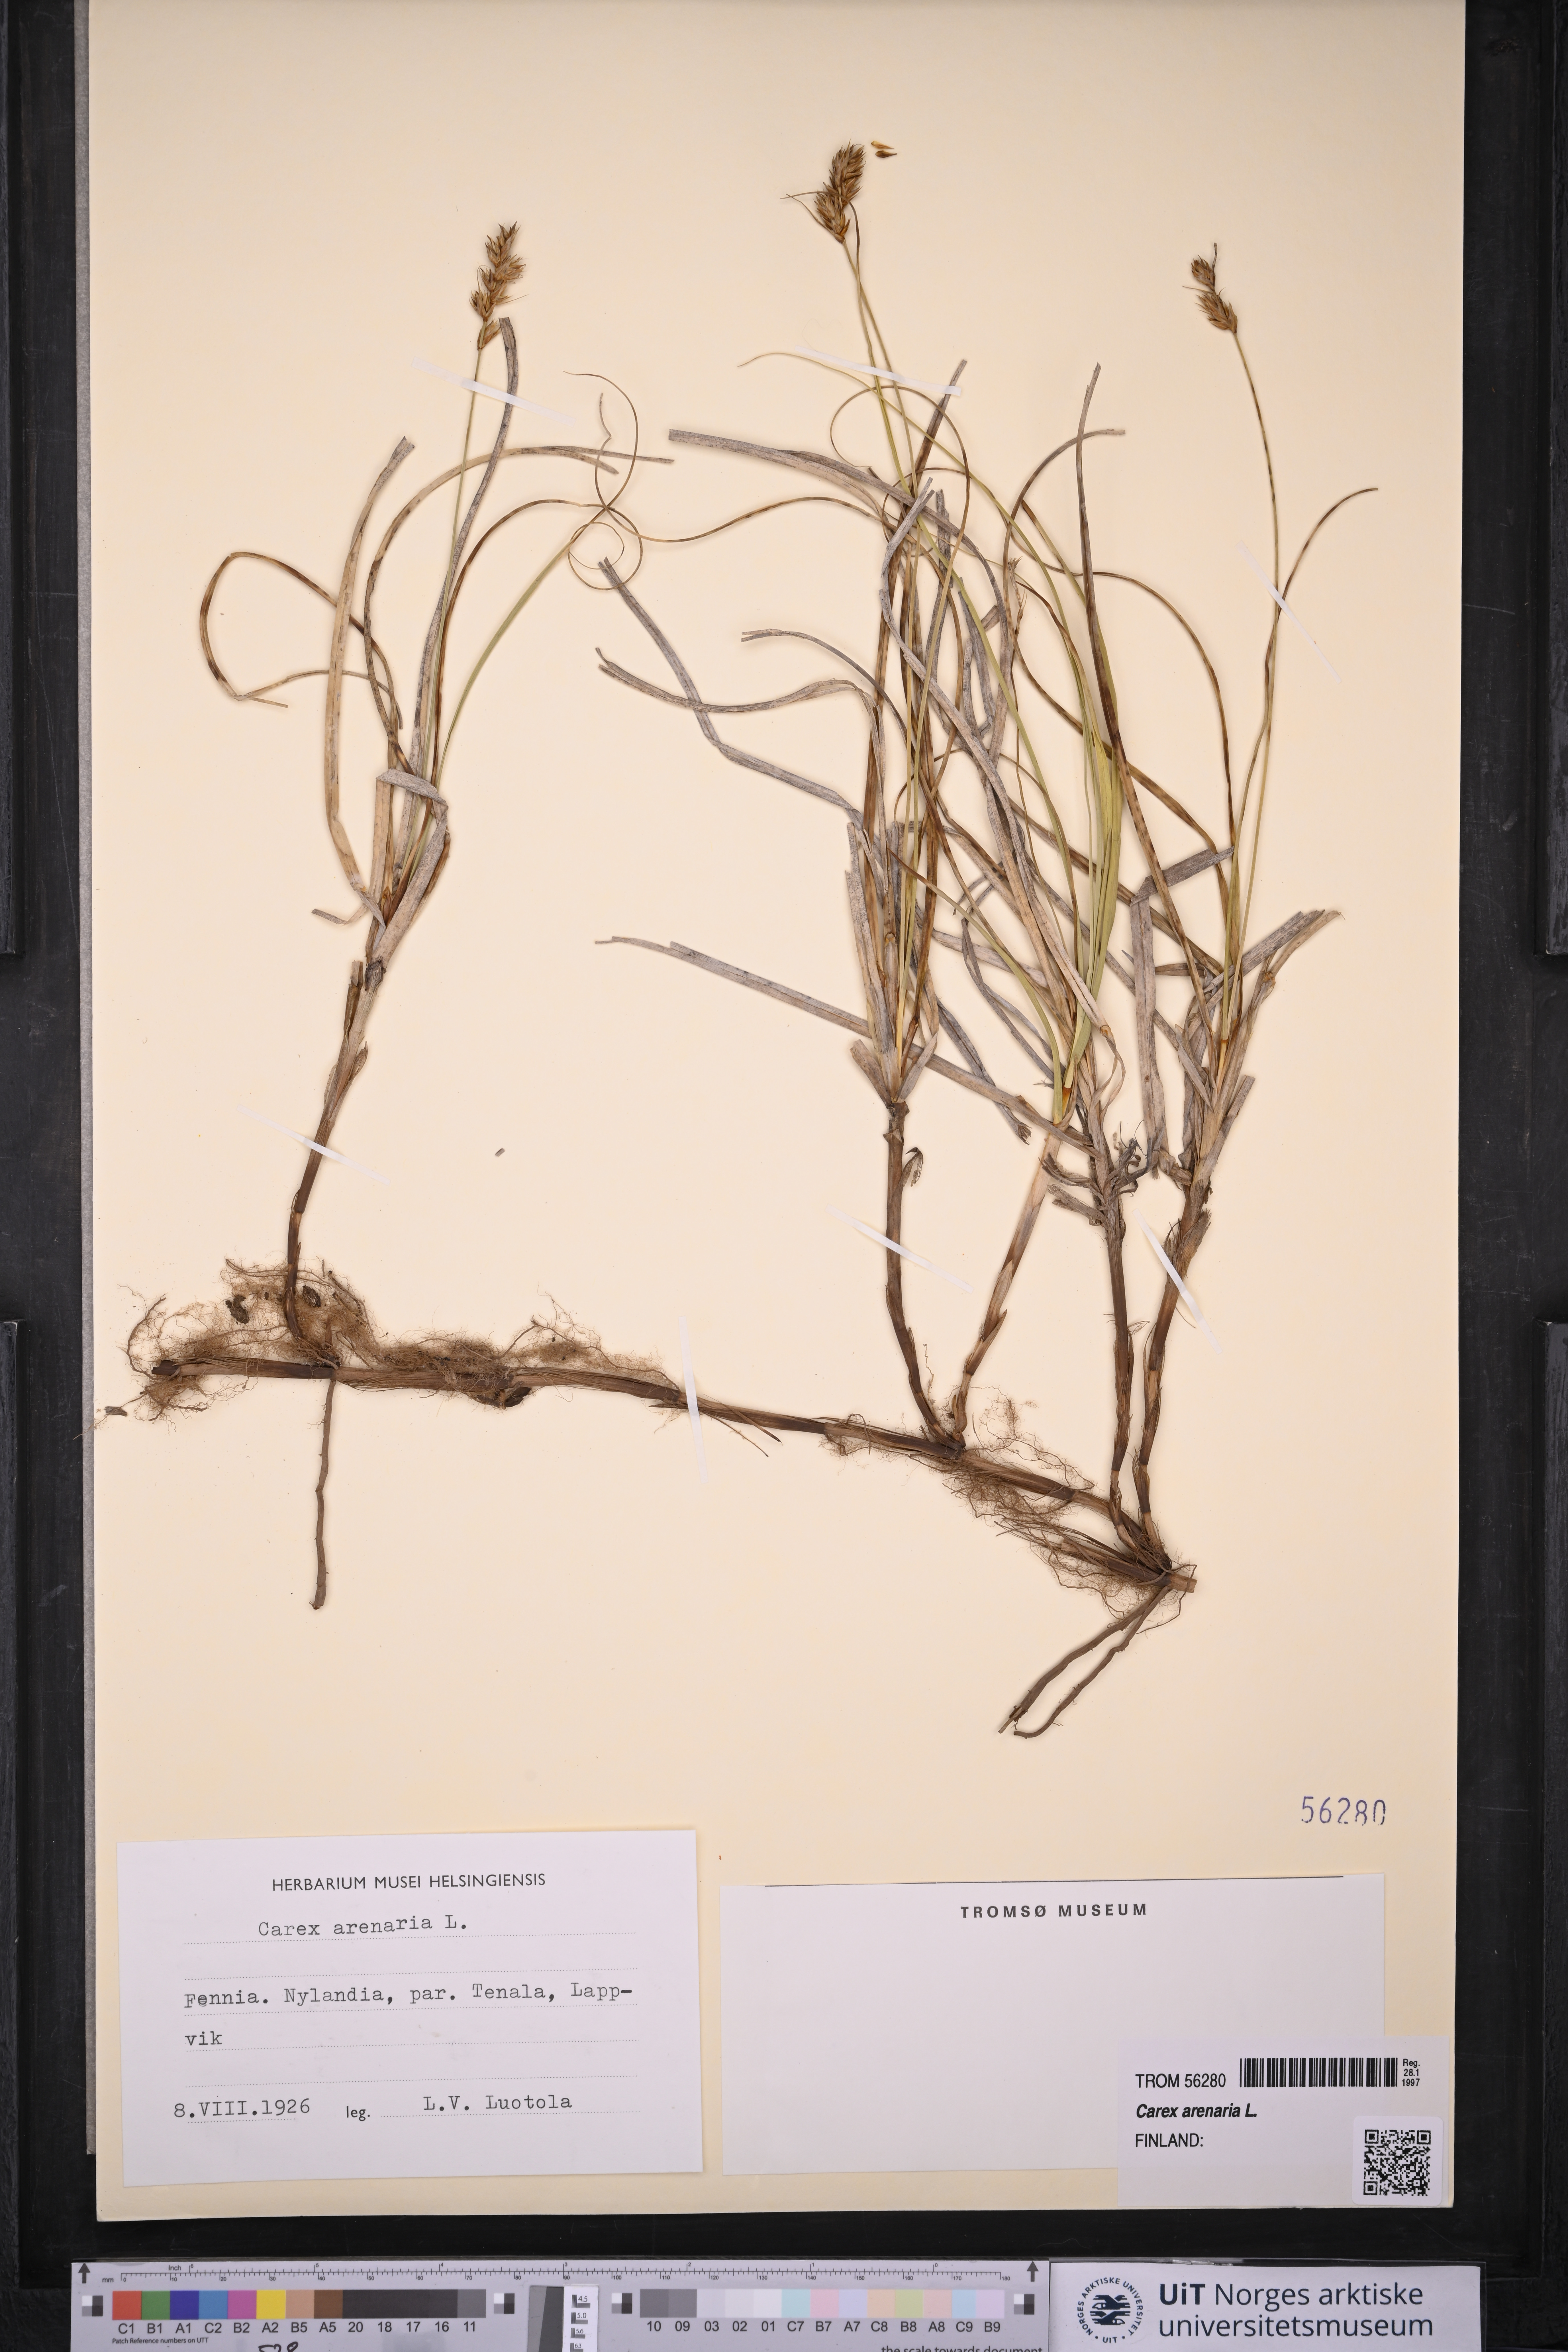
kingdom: Plantae
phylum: Tracheophyta
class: Liliopsida
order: Poales
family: Cyperaceae
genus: Carex
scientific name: Carex arenaria
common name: Sand sedge
